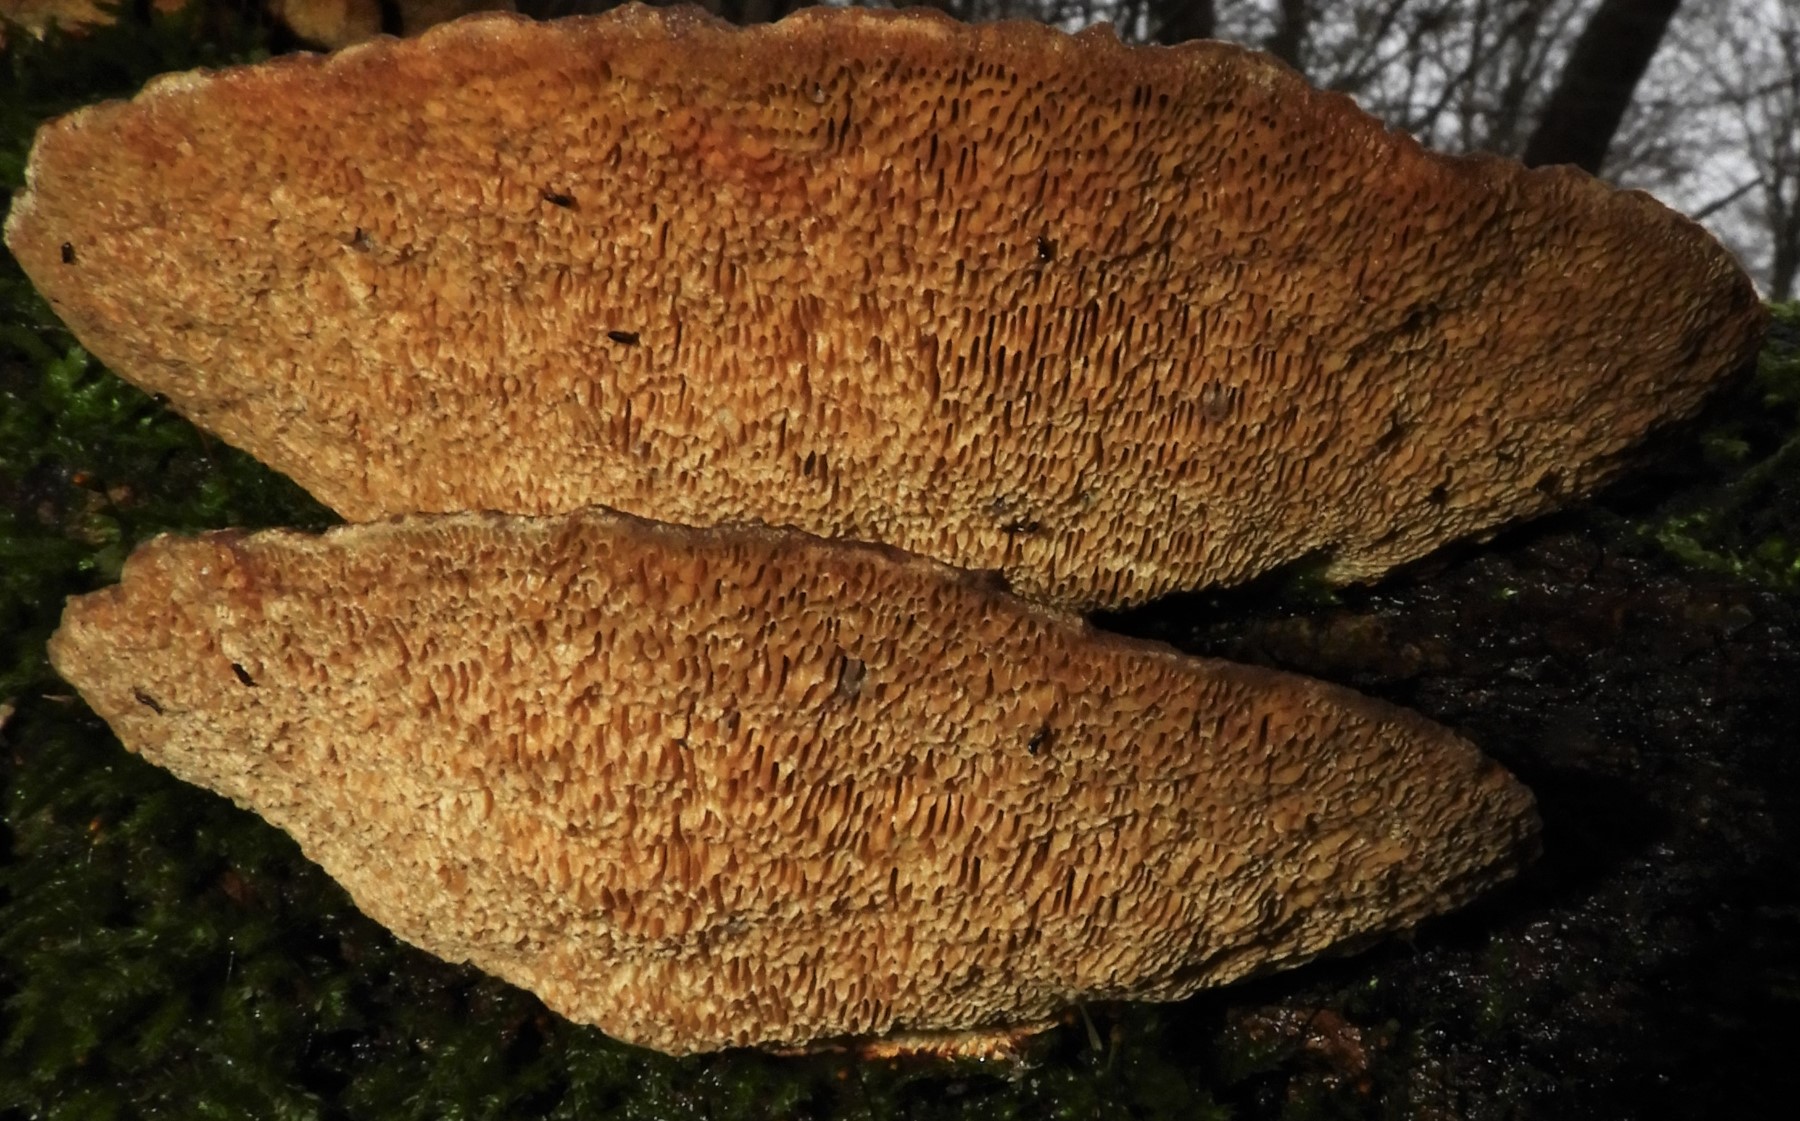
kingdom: Fungi
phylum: Basidiomycota
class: Agaricomycetes
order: Polyporales
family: Polyporaceae
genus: Daedaleopsis
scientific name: Daedaleopsis confragosa
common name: rødmende læderporesvamp
